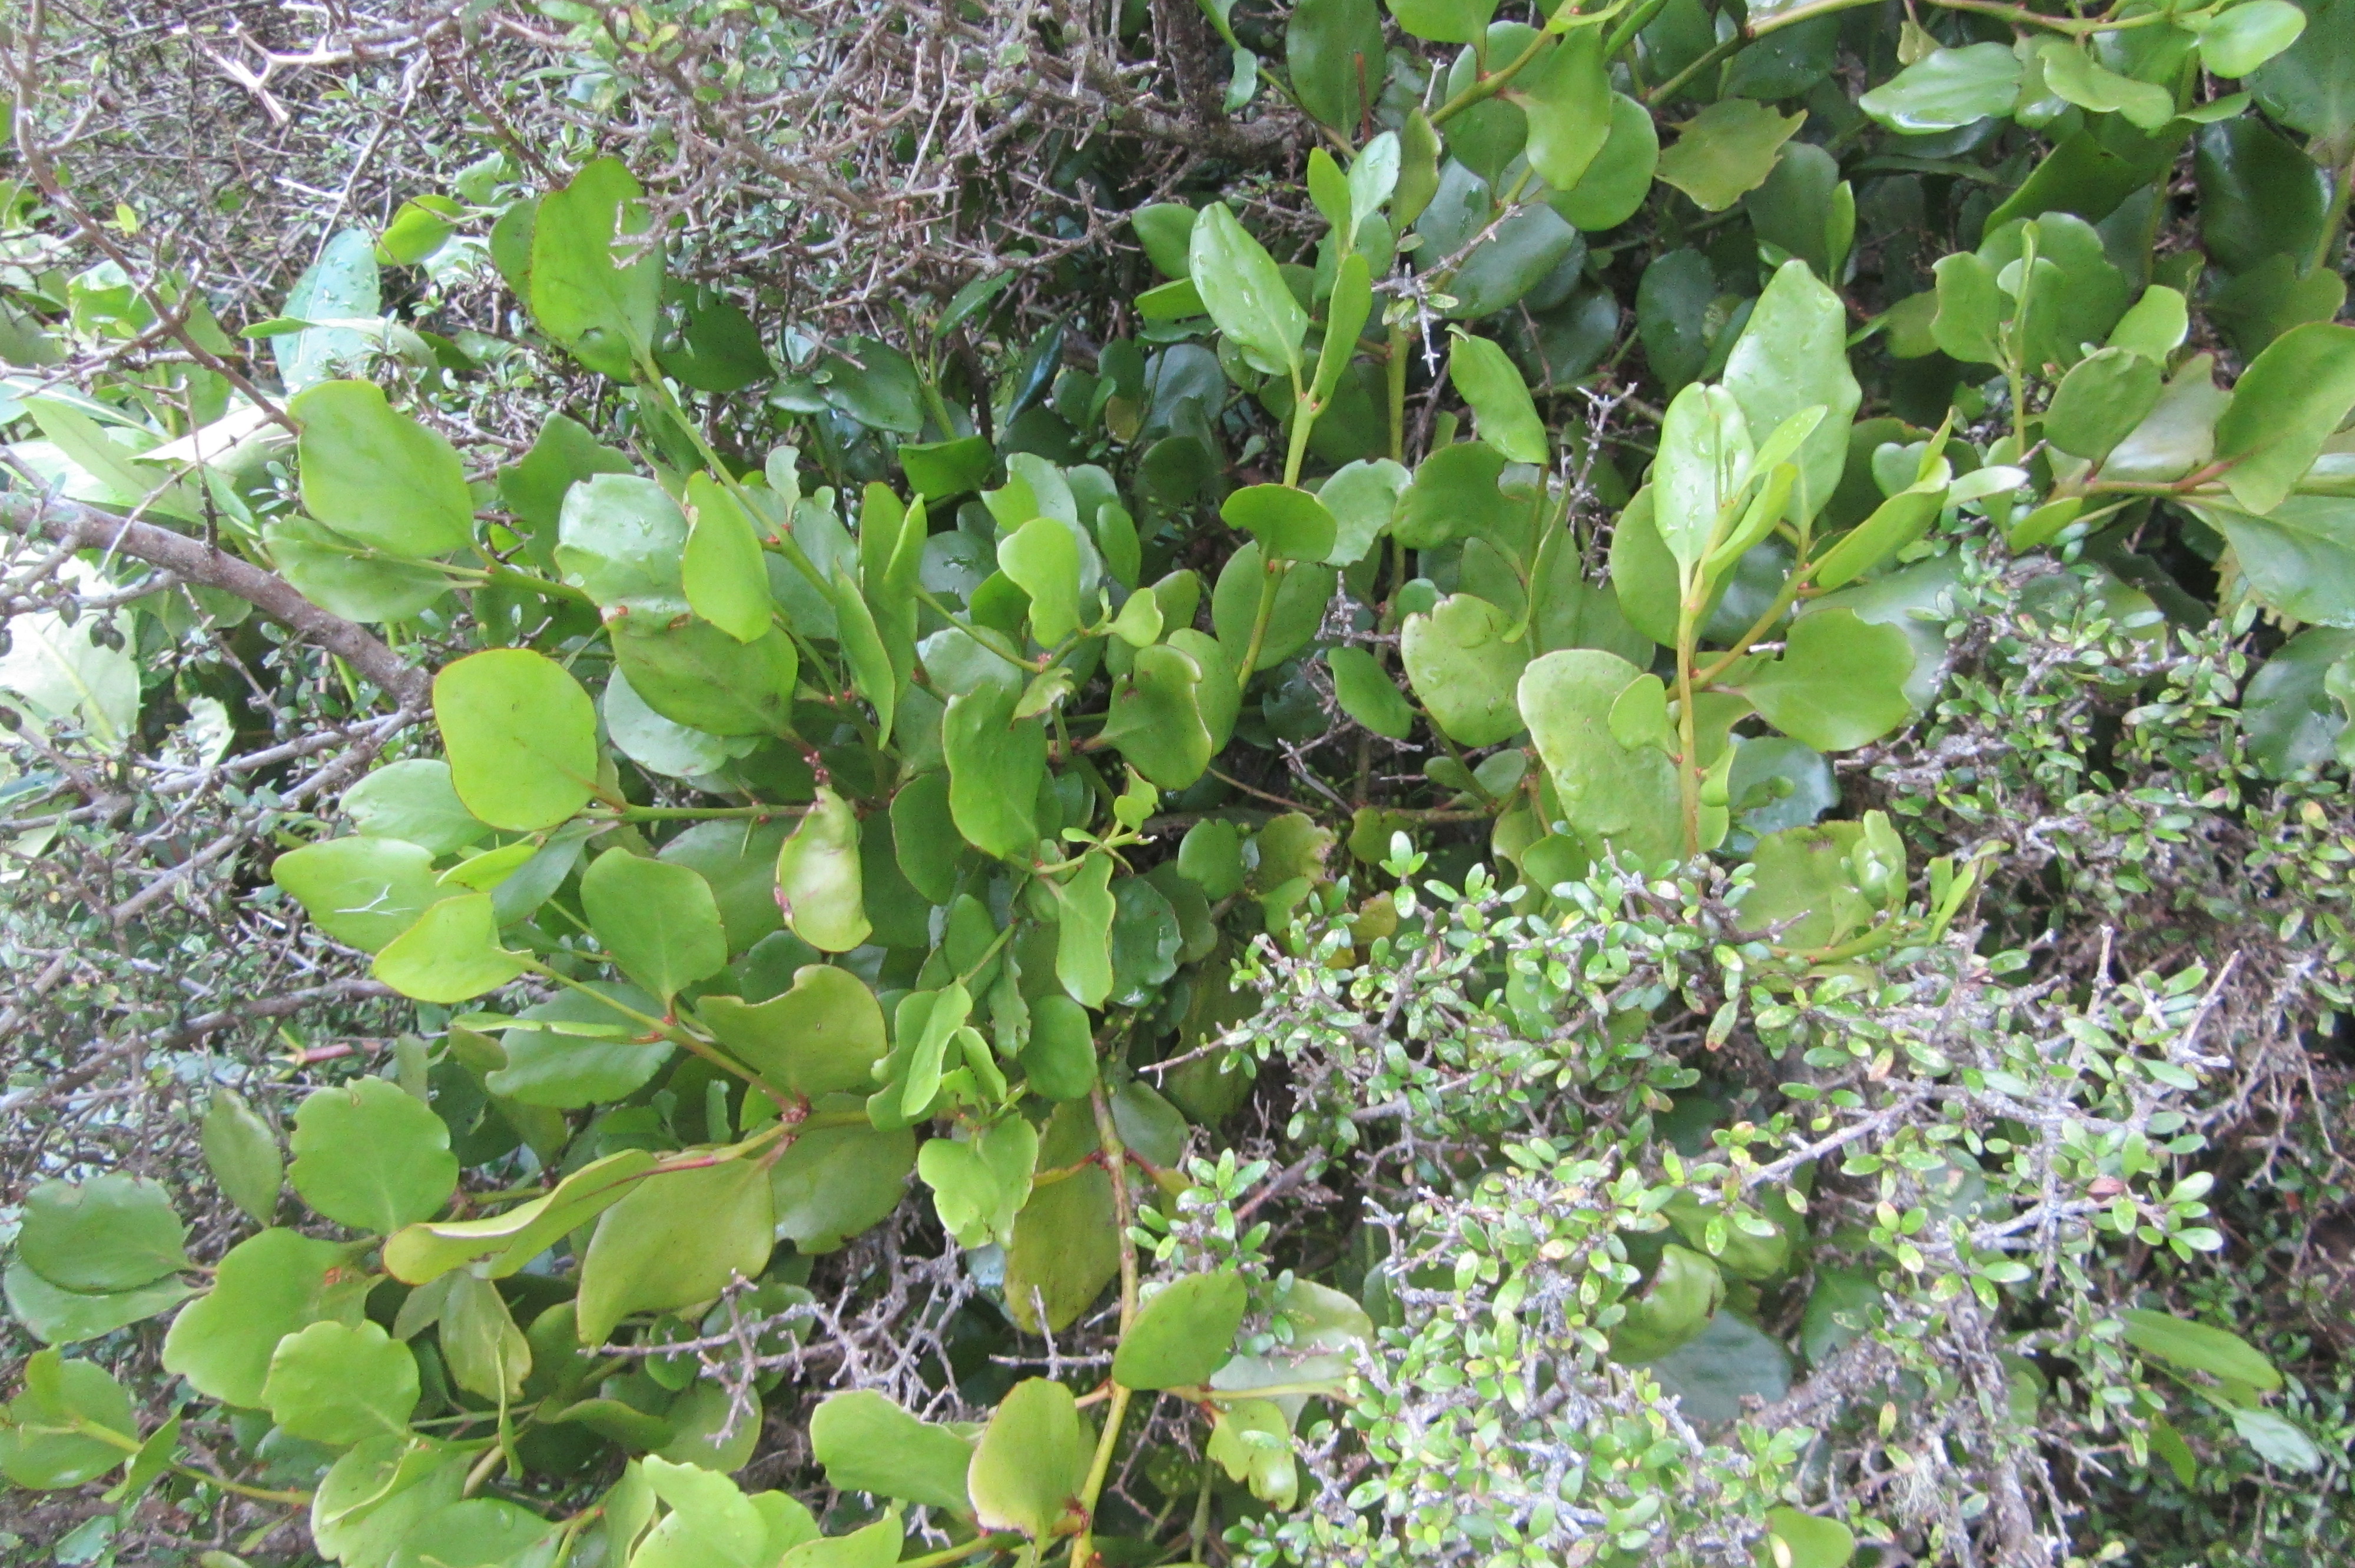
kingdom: Plantae
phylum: Tracheophyta
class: Magnoliopsida
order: Santalales
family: Loranthaceae
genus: Ileostylus
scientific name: Ileostylus micranthus
